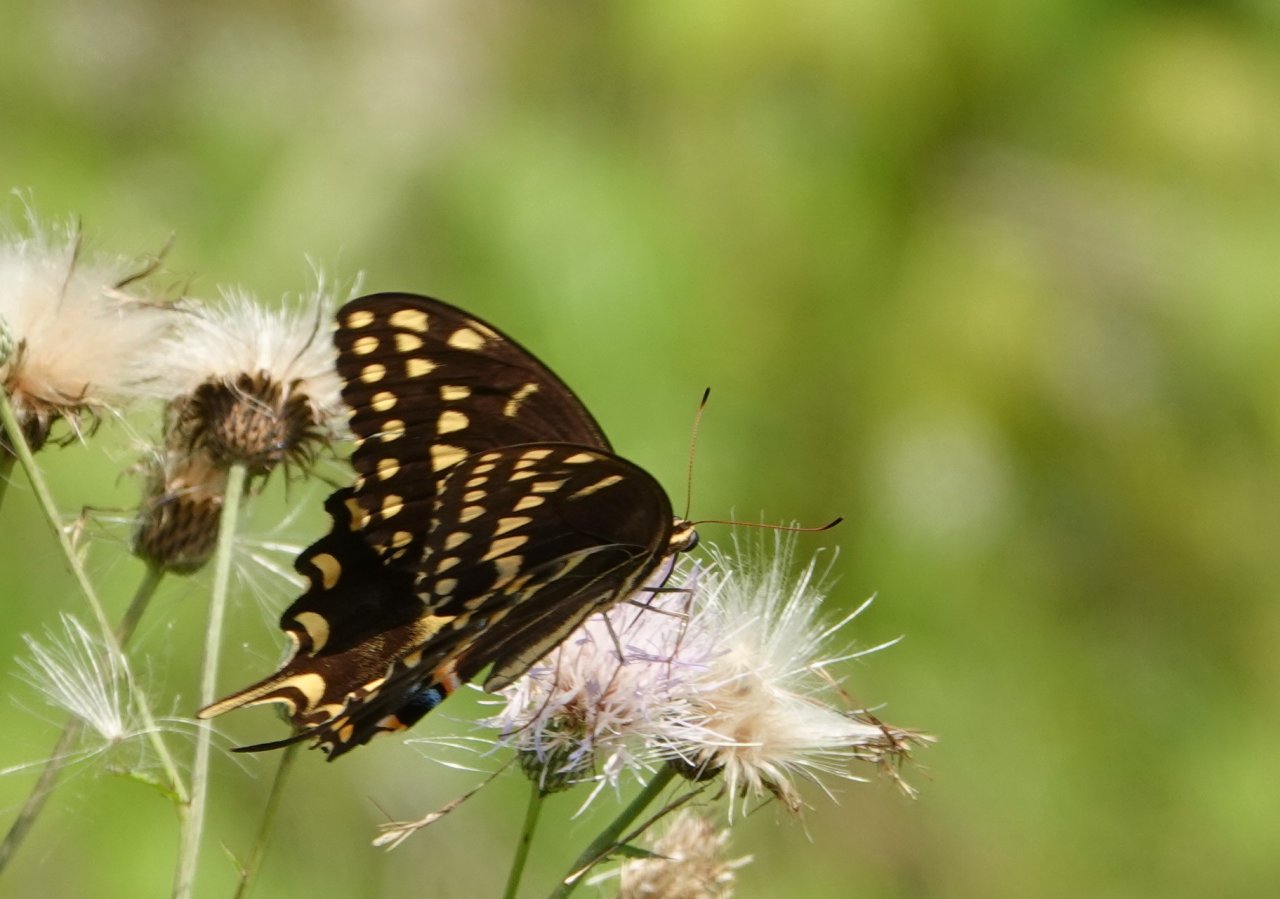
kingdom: Animalia
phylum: Arthropoda
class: Insecta
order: Lepidoptera
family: Papilionidae
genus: Pterourus
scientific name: Pterourus palamedes
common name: Palamedes Swallowtail
